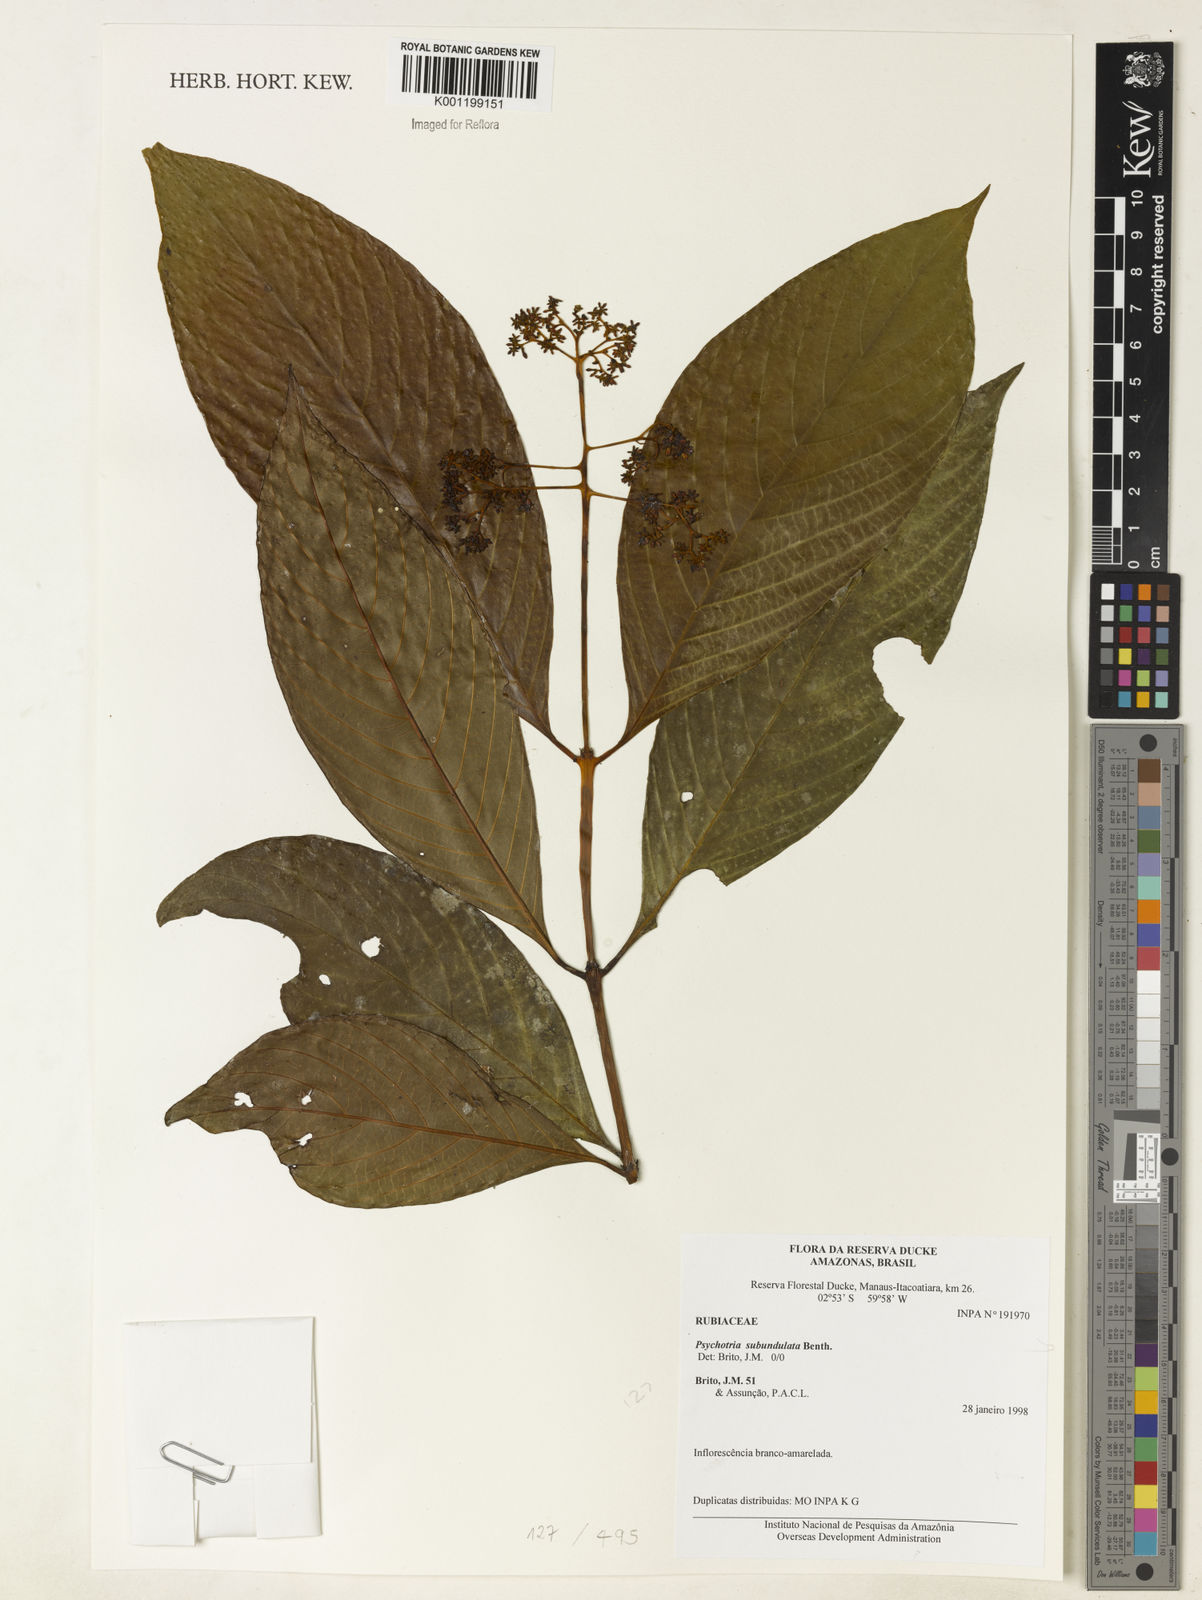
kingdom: Plantae
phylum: Tracheophyta
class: Magnoliopsida
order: Gentianales
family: Rubiaceae
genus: Palicourea
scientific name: Palicourea subundulata
